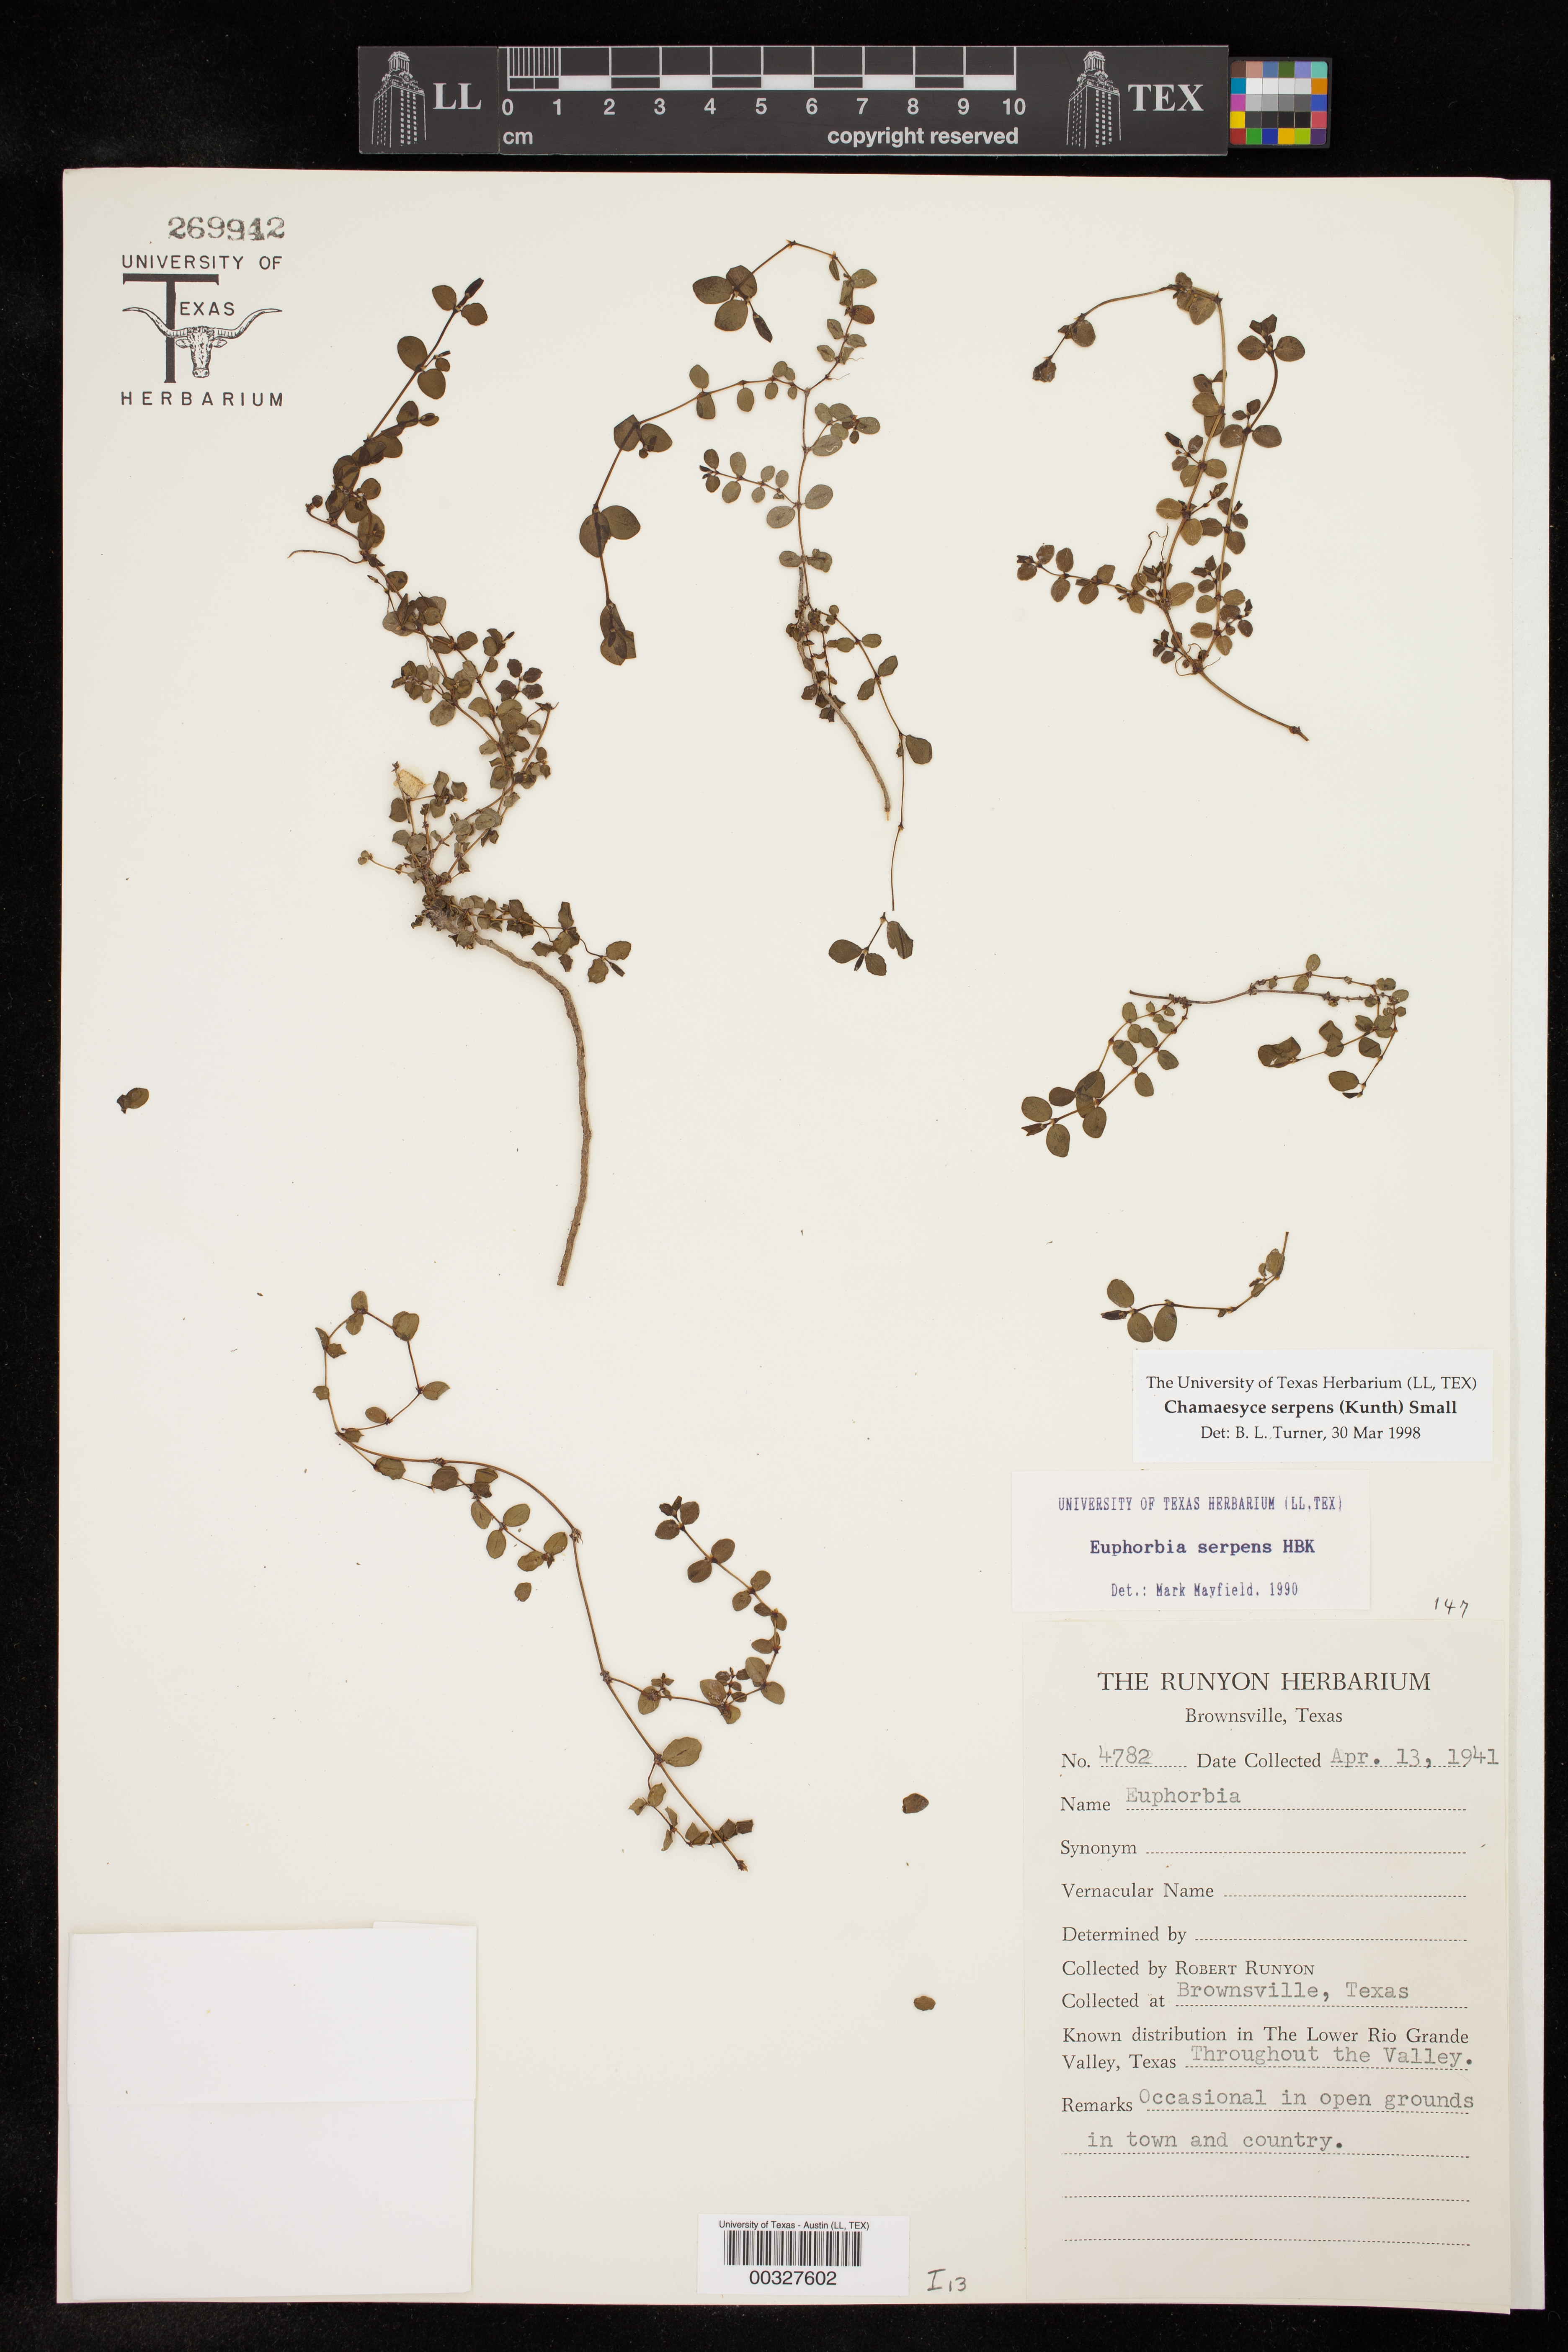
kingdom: Plantae
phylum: Tracheophyta
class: Magnoliopsida
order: Malpighiales
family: Euphorbiaceae
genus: Euphorbia
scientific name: Euphorbia serpens
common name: Matted sandmat
